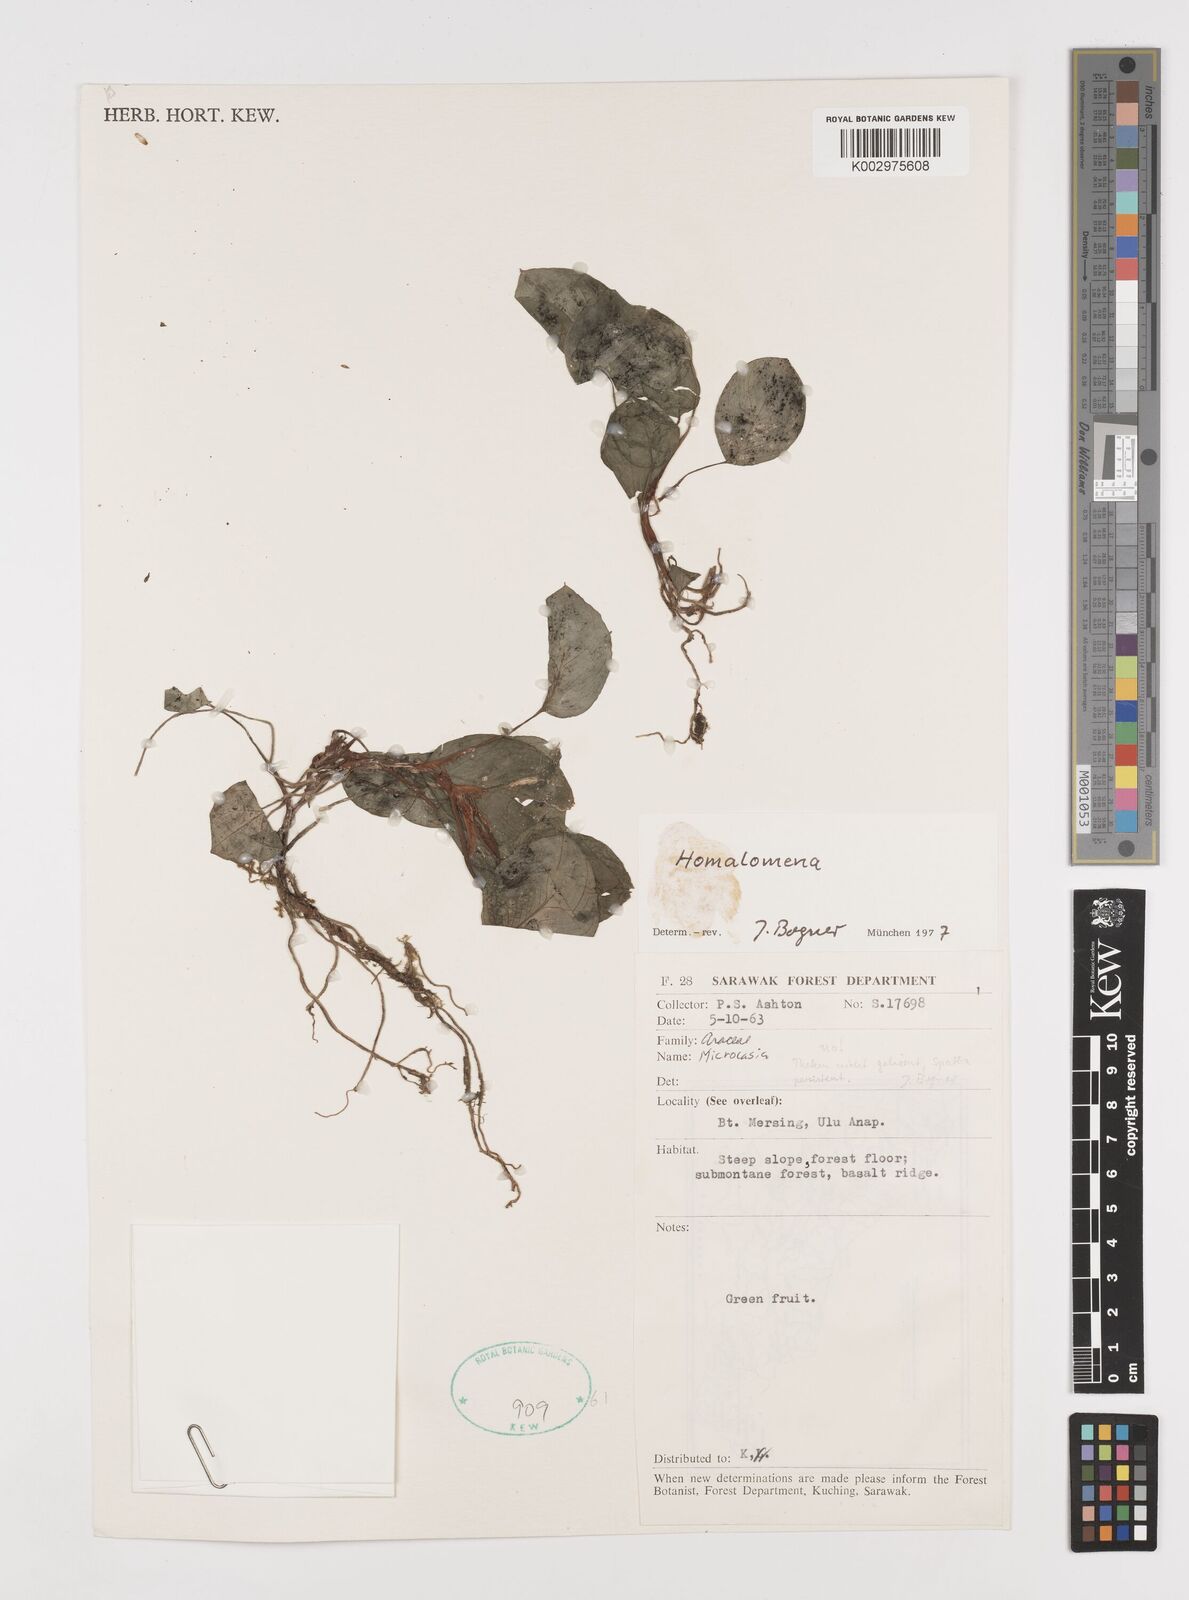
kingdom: Plantae
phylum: Tracheophyta
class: Liliopsida
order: Alismatales
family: Araceae
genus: Homalomena
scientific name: Homalomena
